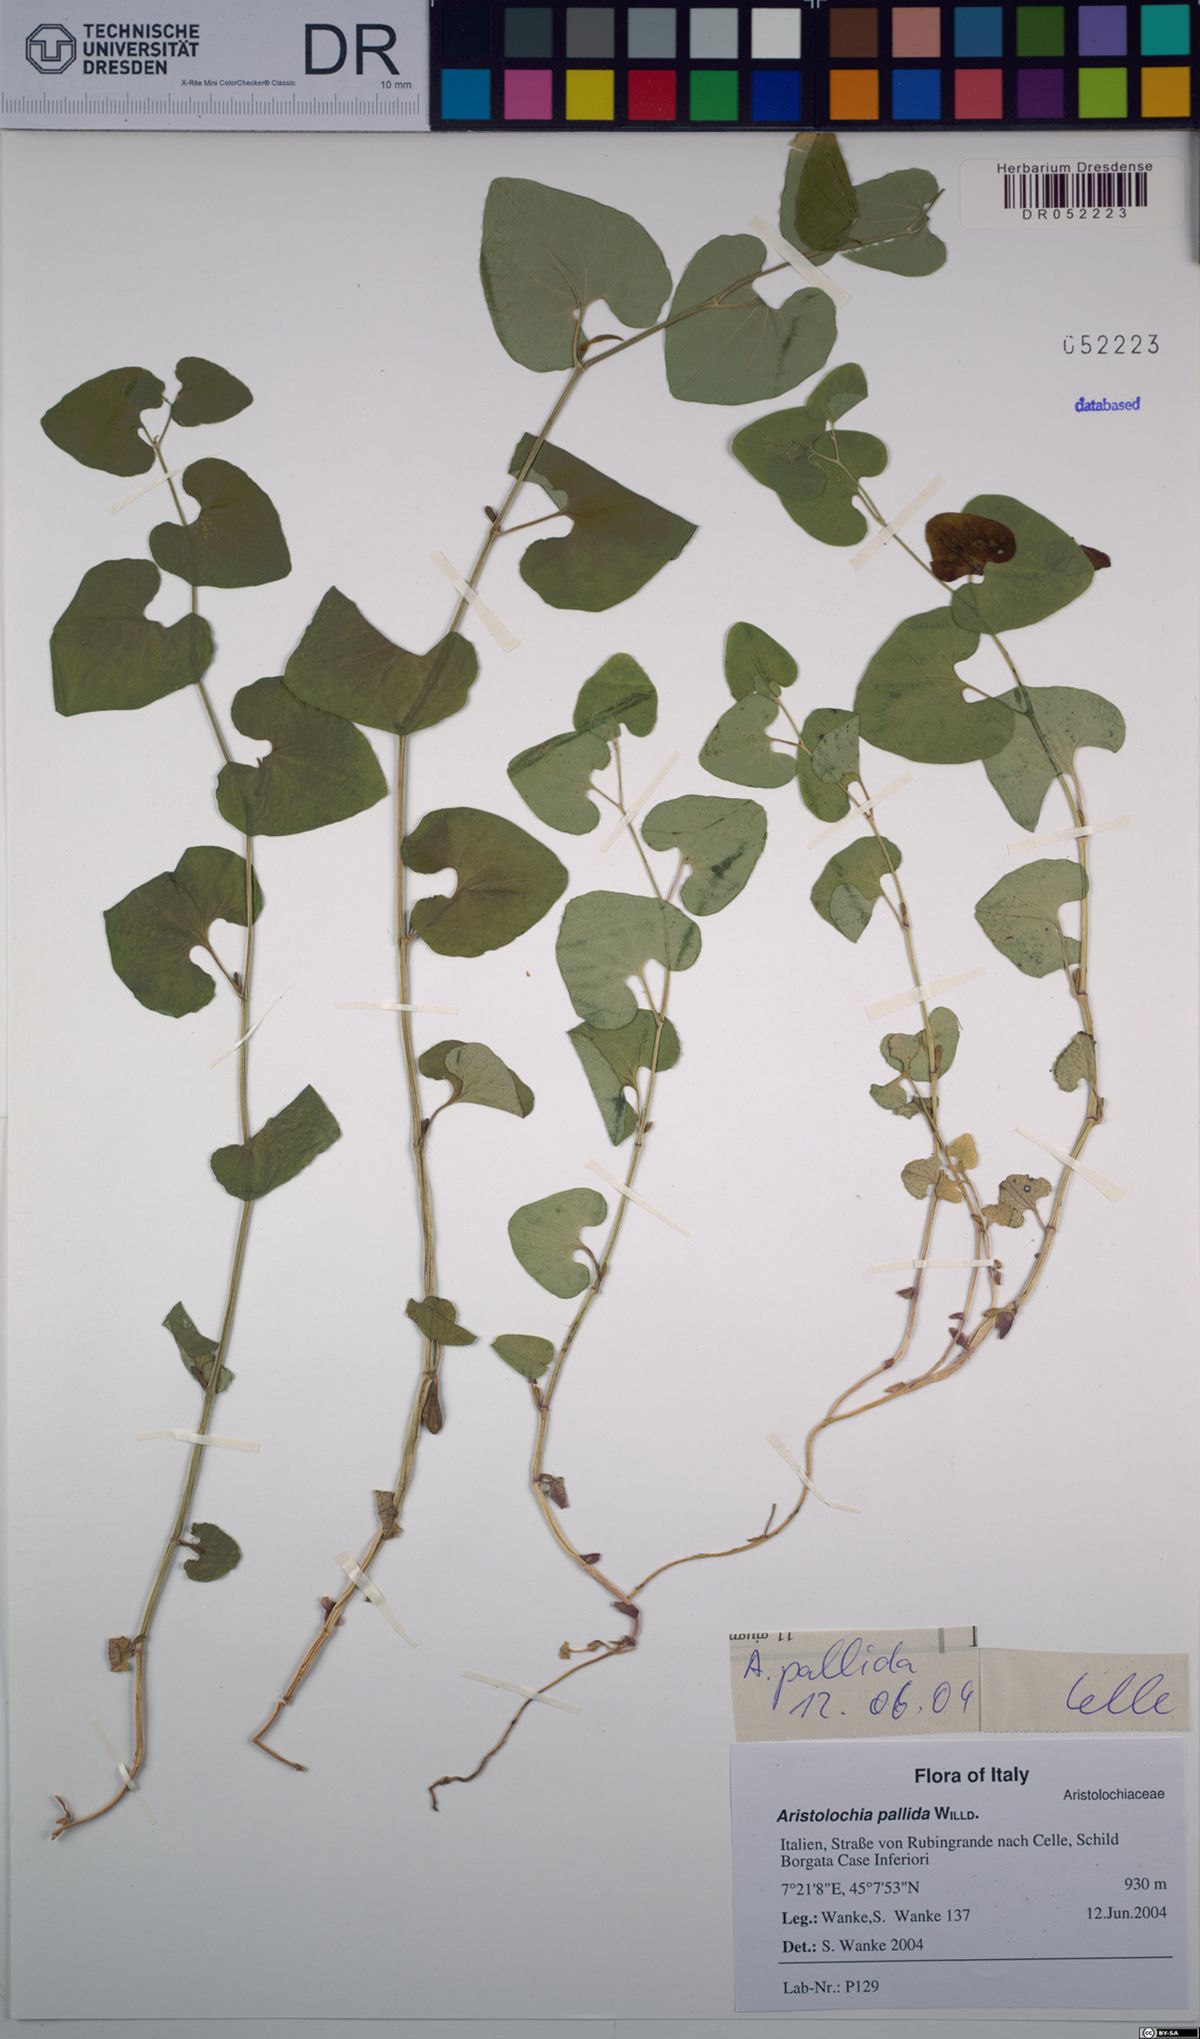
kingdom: Plantae
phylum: Tracheophyta
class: Magnoliopsida
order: Piperales
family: Aristolochiaceae
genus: Aristolochia
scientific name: Aristolochia pallida
